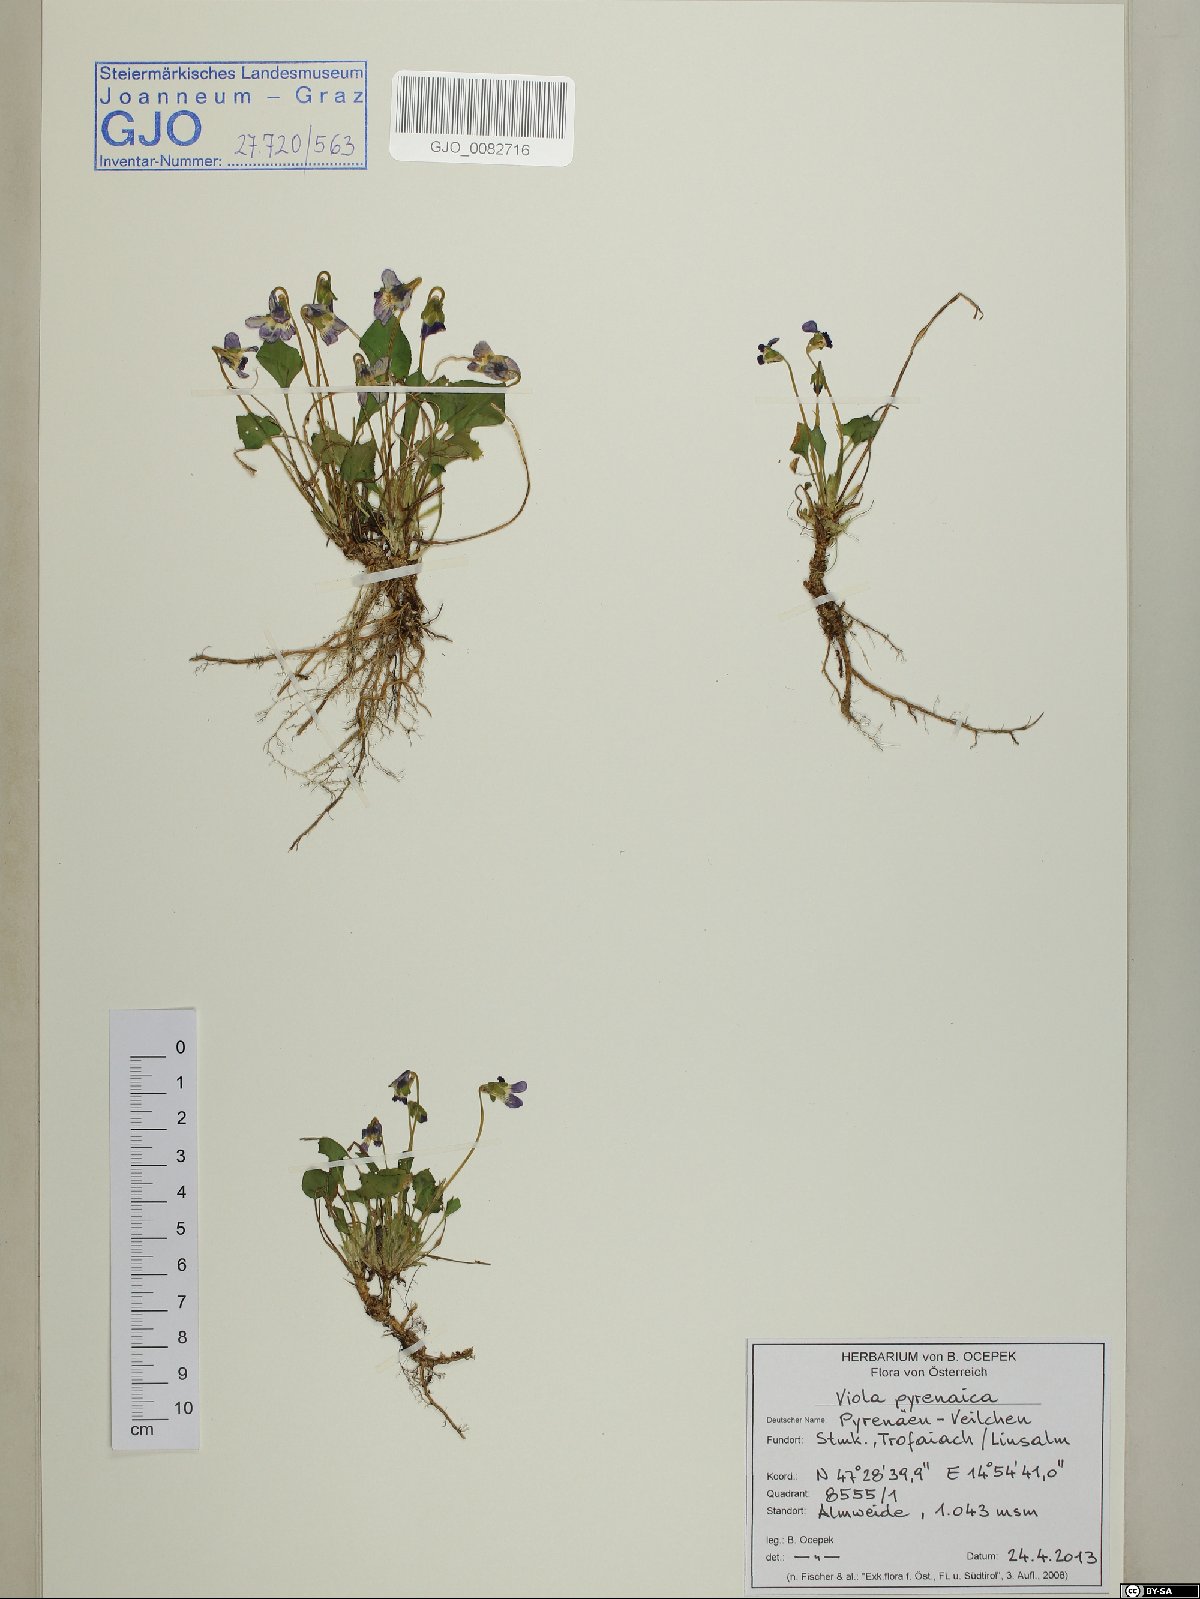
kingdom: Plantae
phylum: Tracheophyta
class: Magnoliopsida
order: Malpighiales
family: Violaceae
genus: Viola
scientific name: Viola pyrenaica
